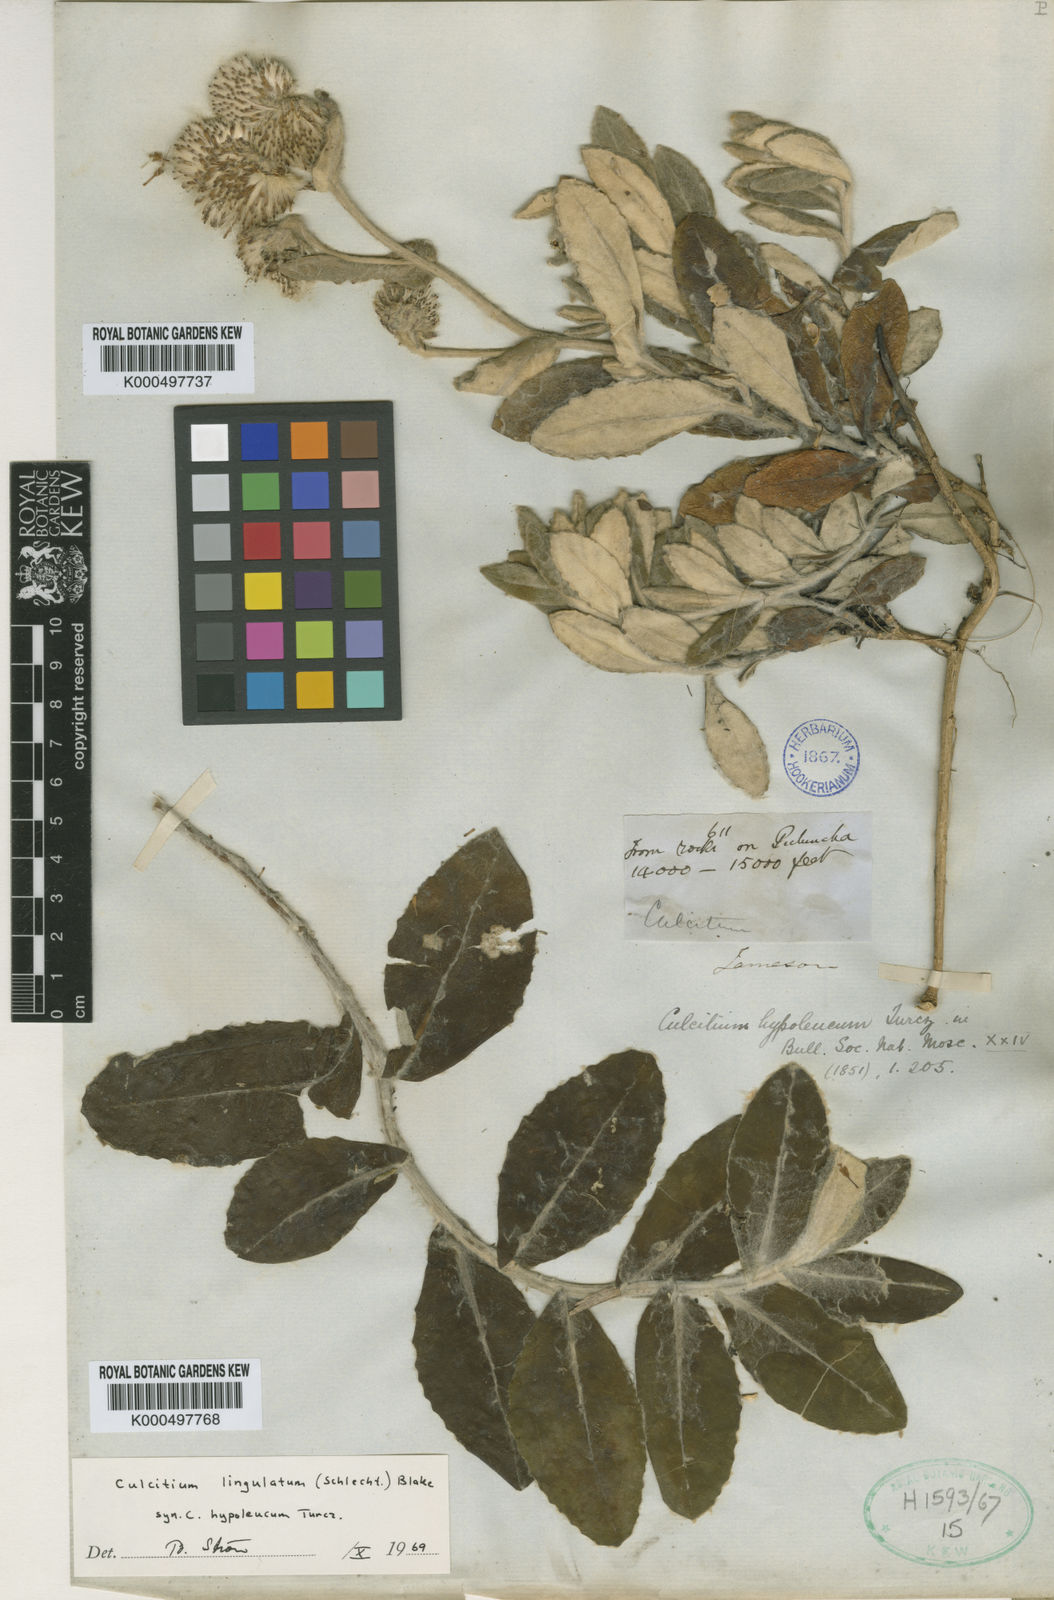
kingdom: Plantae
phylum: Tracheophyta
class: Magnoliopsida
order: Asterales
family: Asteraceae
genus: Lasiocephalus
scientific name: Lasiocephalus lingulatus
